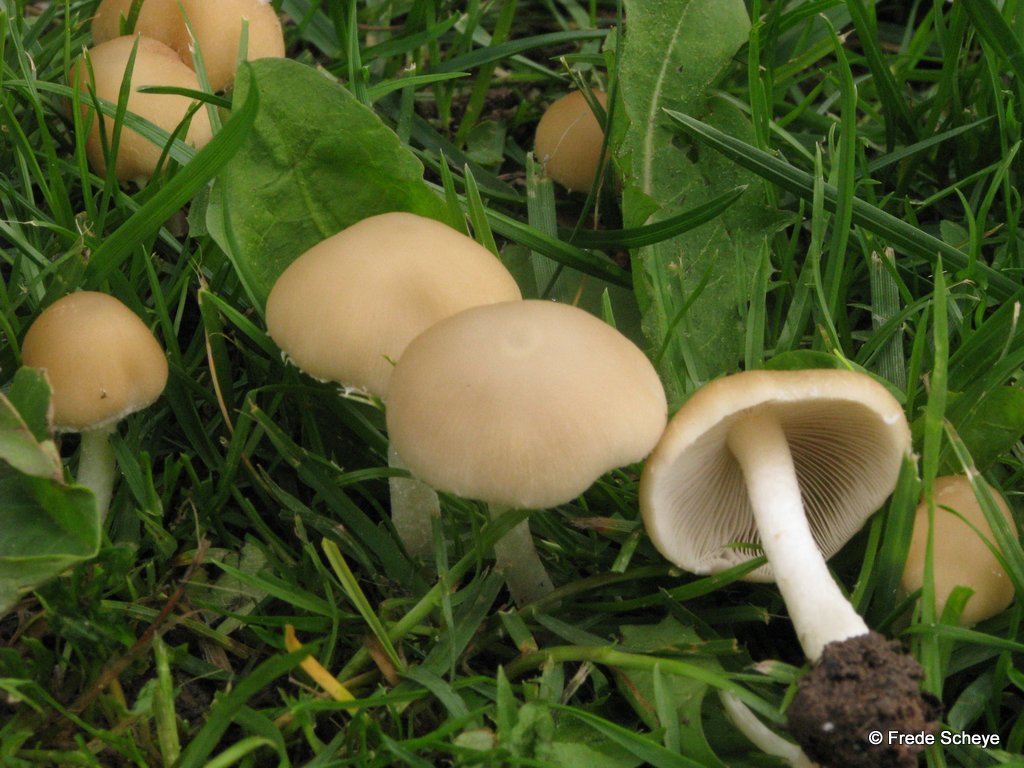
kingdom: Fungi
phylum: Basidiomycota
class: Agaricomycetes
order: Agaricales
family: Psathyrellaceae
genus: Candolleomyces
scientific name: Candolleomyces candolleanus
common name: Candolles mørkhat
